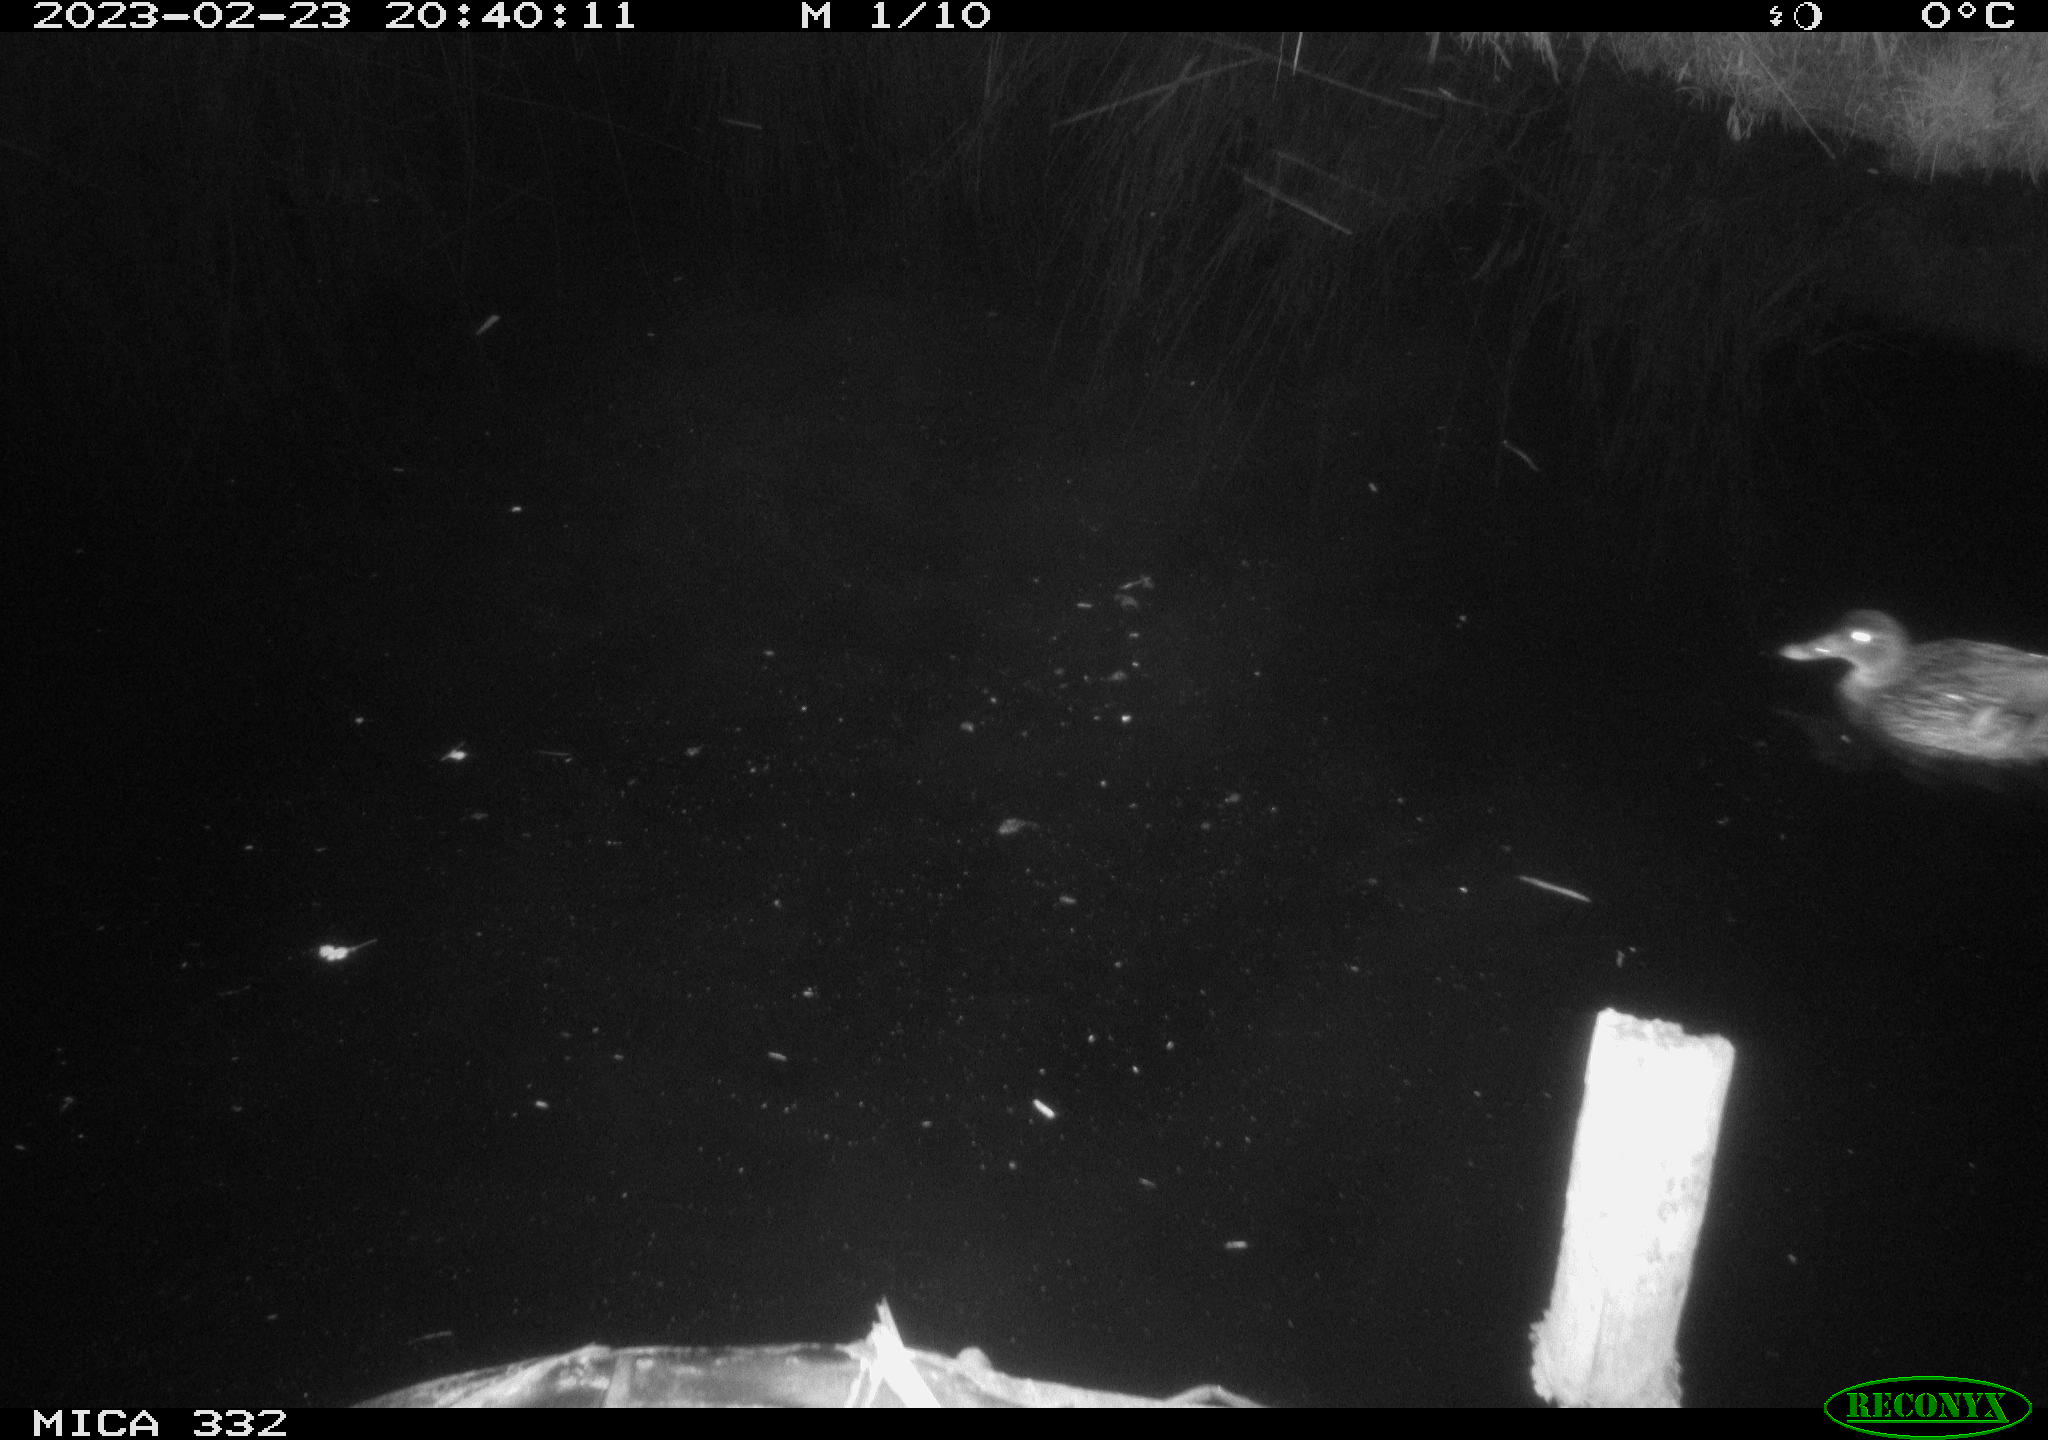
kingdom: Animalia
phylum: Chordata
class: Aves
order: Anseriformes
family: Anatidae
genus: Anas
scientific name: Anas
